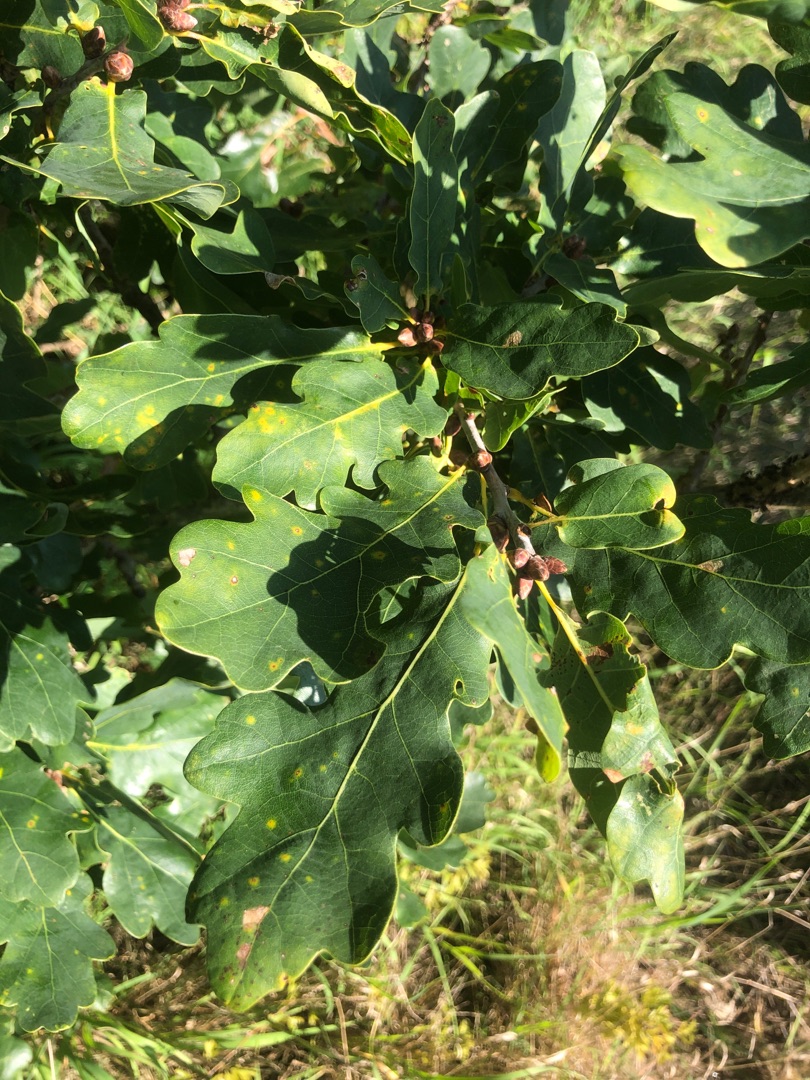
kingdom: Plantae
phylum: Tracheophyta
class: Magnoliopsida
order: Fagales
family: Fagaceae
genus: Quercus
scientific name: Quercus robur
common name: Stilk-eg/almindelig eg
